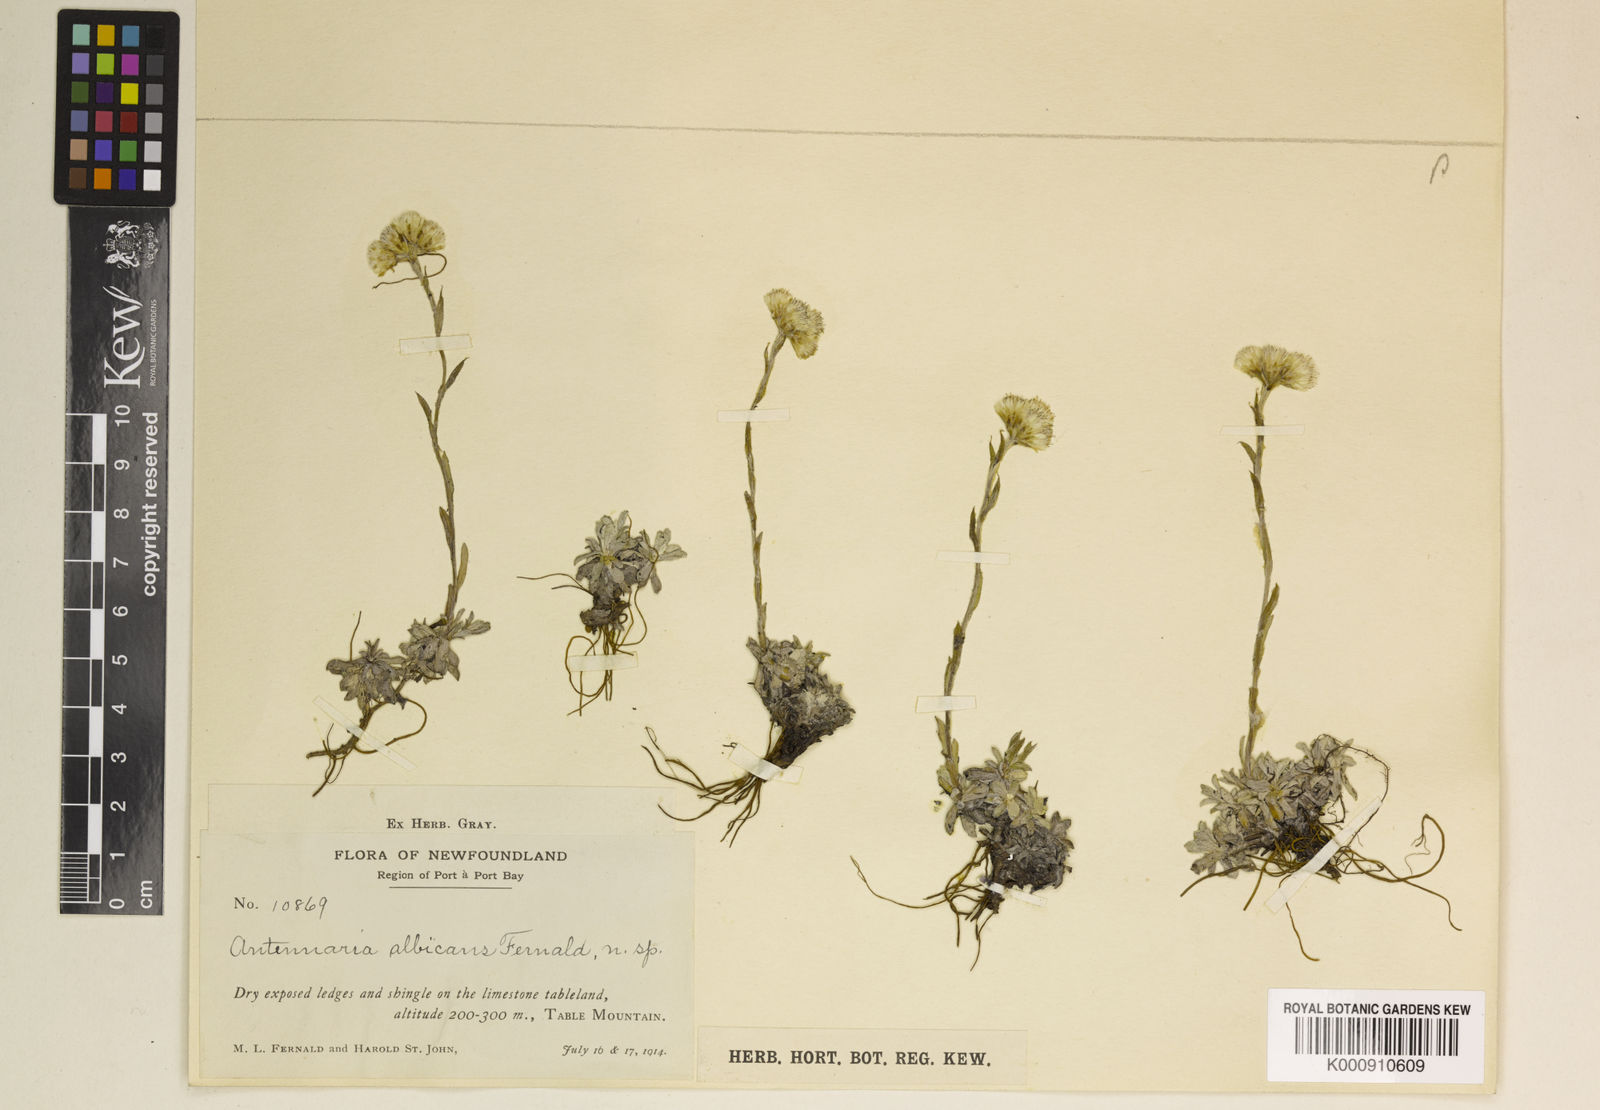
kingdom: Plantae
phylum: Tracheophyta
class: Magnoliopsida
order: Asterales
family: Asteraceae
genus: Antennaria
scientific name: Antennaria rosea
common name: Rosy pussytoes
